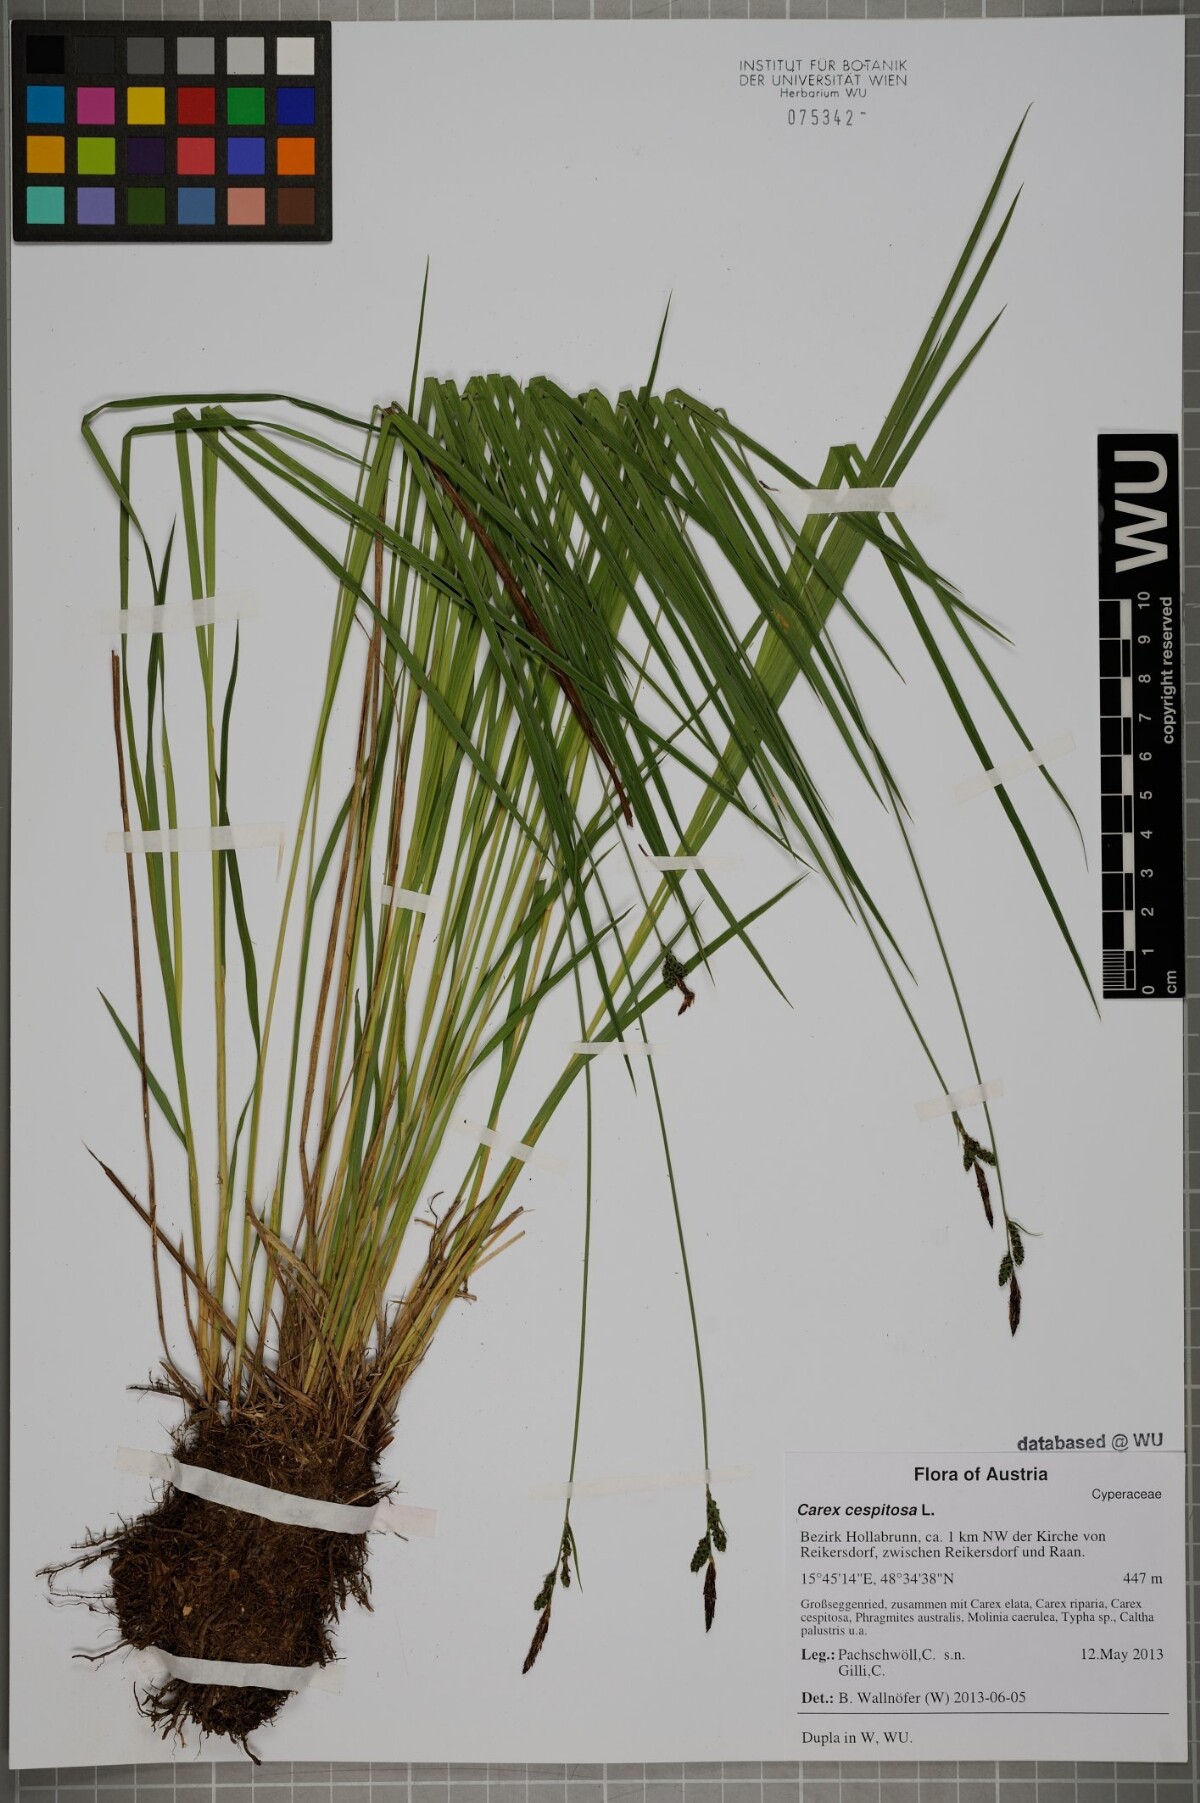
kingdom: Plantae
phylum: Tracheophyta
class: Liliopsida
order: Poales
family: Cyperaceae
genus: Carex
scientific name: Carex cespitosa
